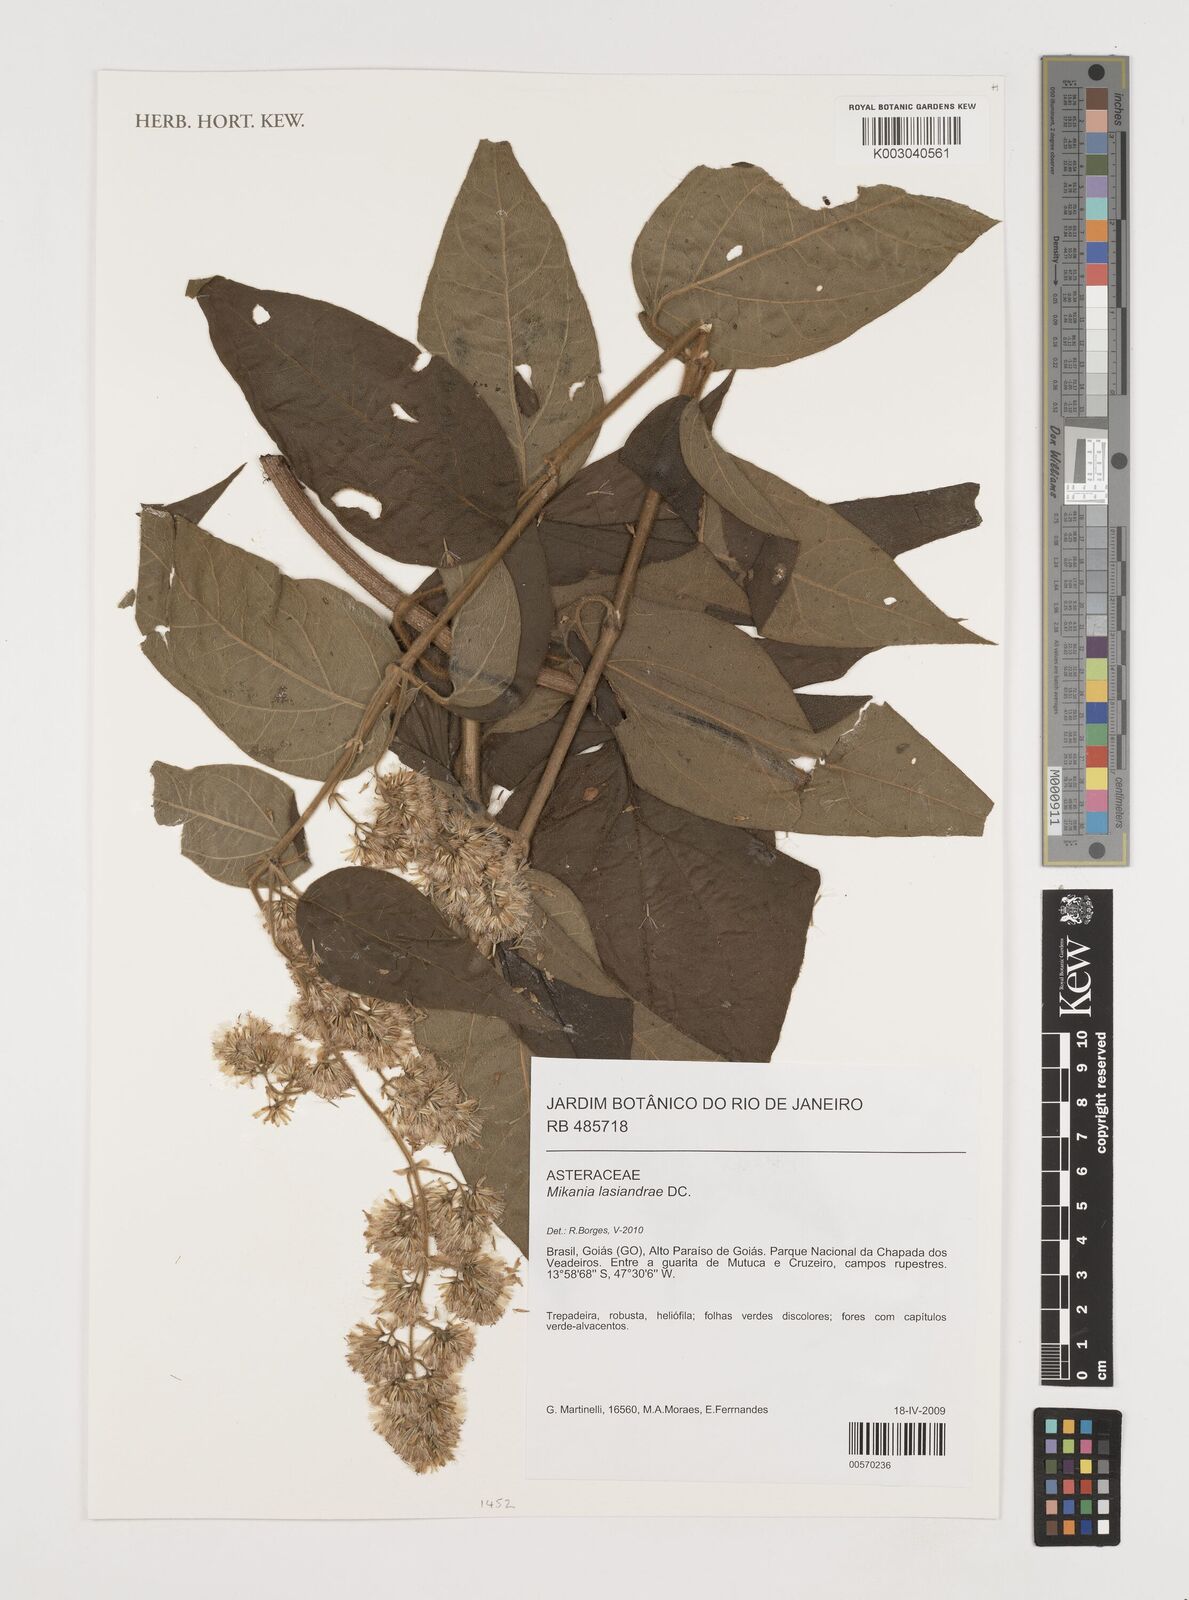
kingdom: Plantae
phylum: Tracheophyta
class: Magnoliopsida
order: Asterales
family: Asteraceae
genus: Mikania
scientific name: Mikania lasiandrae
